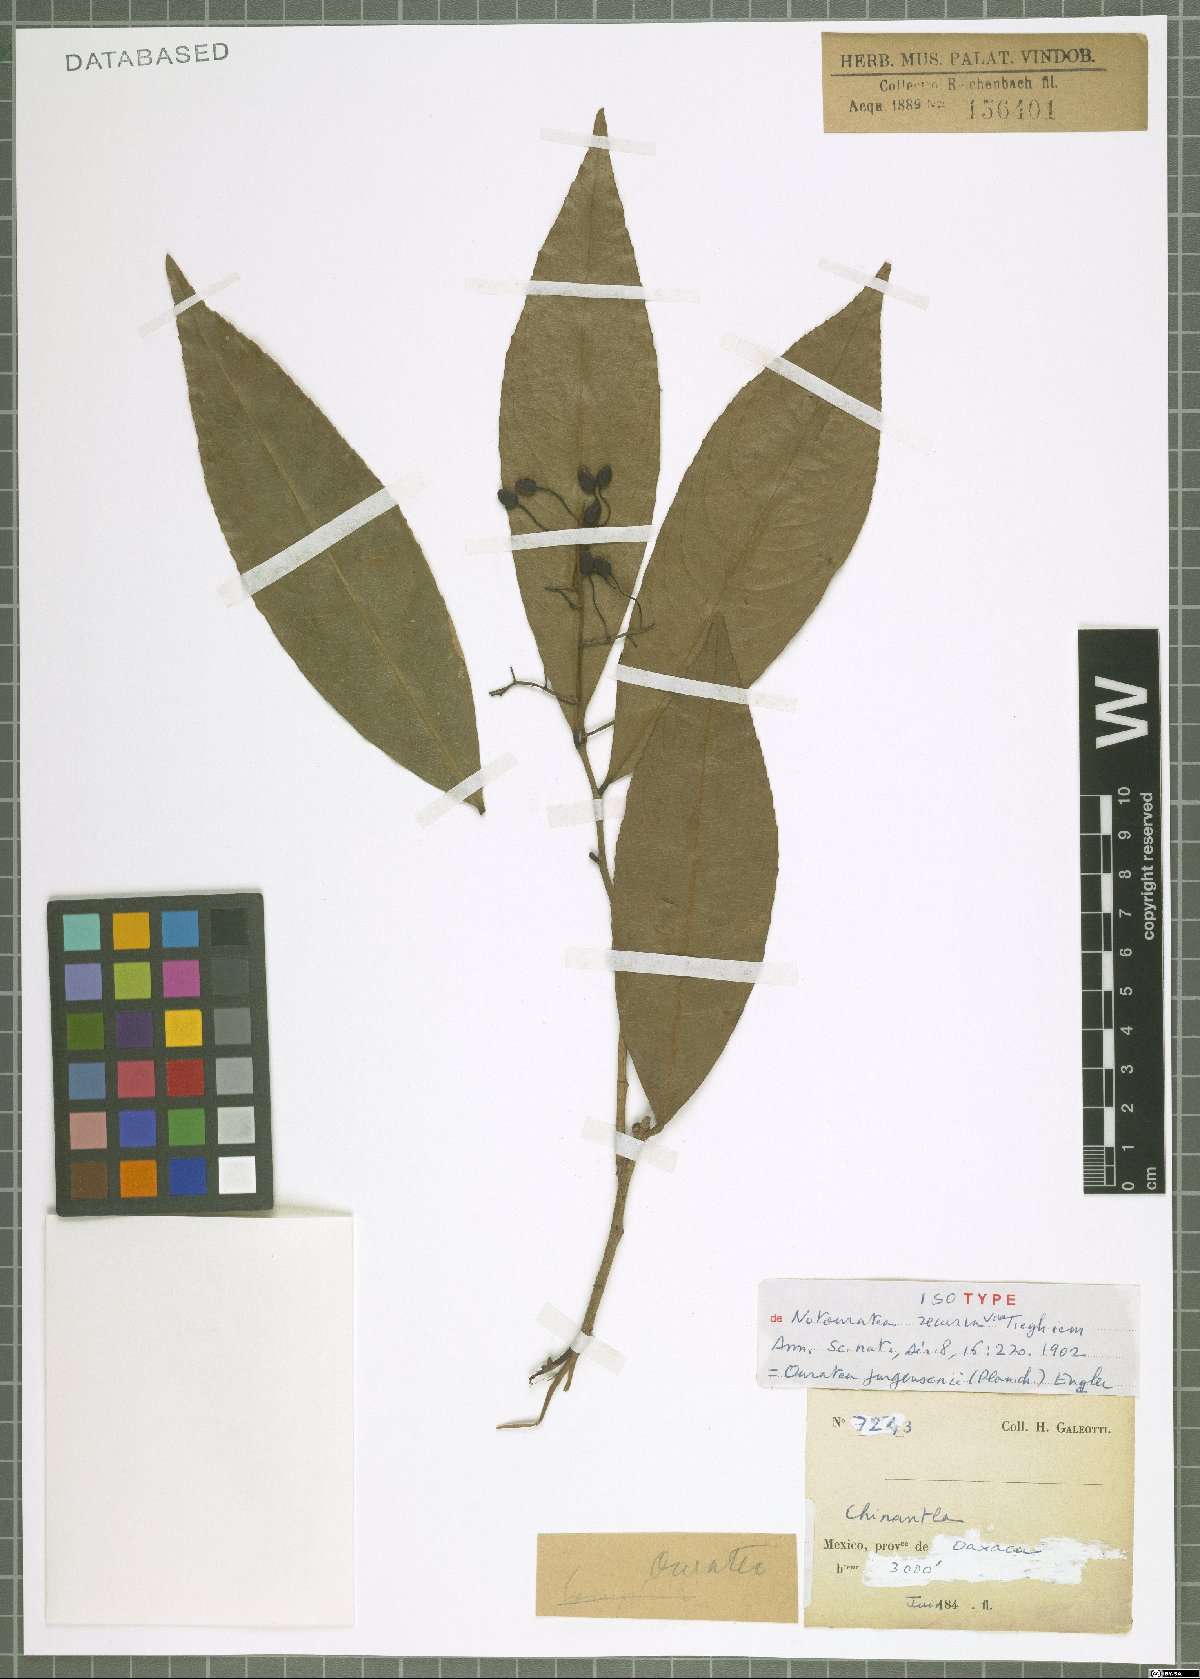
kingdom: Plantae
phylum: Tracheophyta
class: Magnoliopsida
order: Malpighiales
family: Ochnaceae
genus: Ouratea
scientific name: Ouratea juergensii
